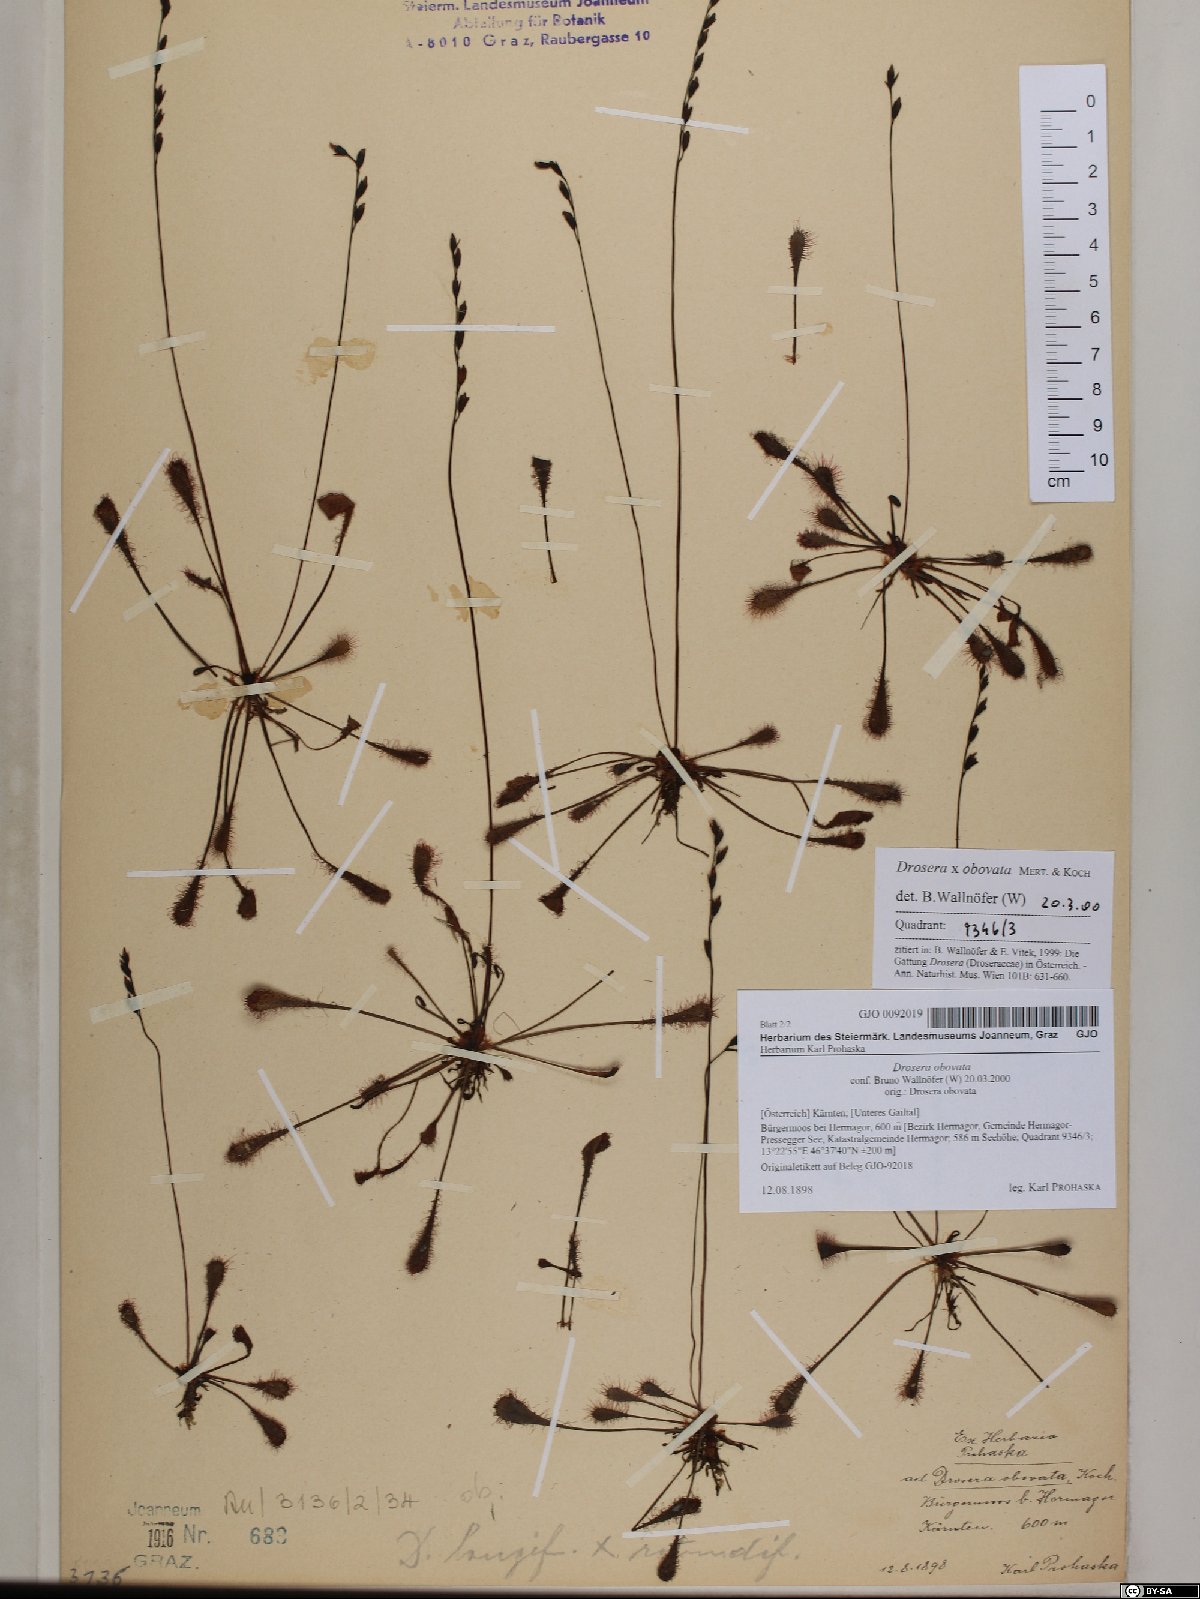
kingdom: Plantae
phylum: Tracheophyta
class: Magnoliopsida
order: Caryophyllales
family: Droseraceae
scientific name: Droseraceae
